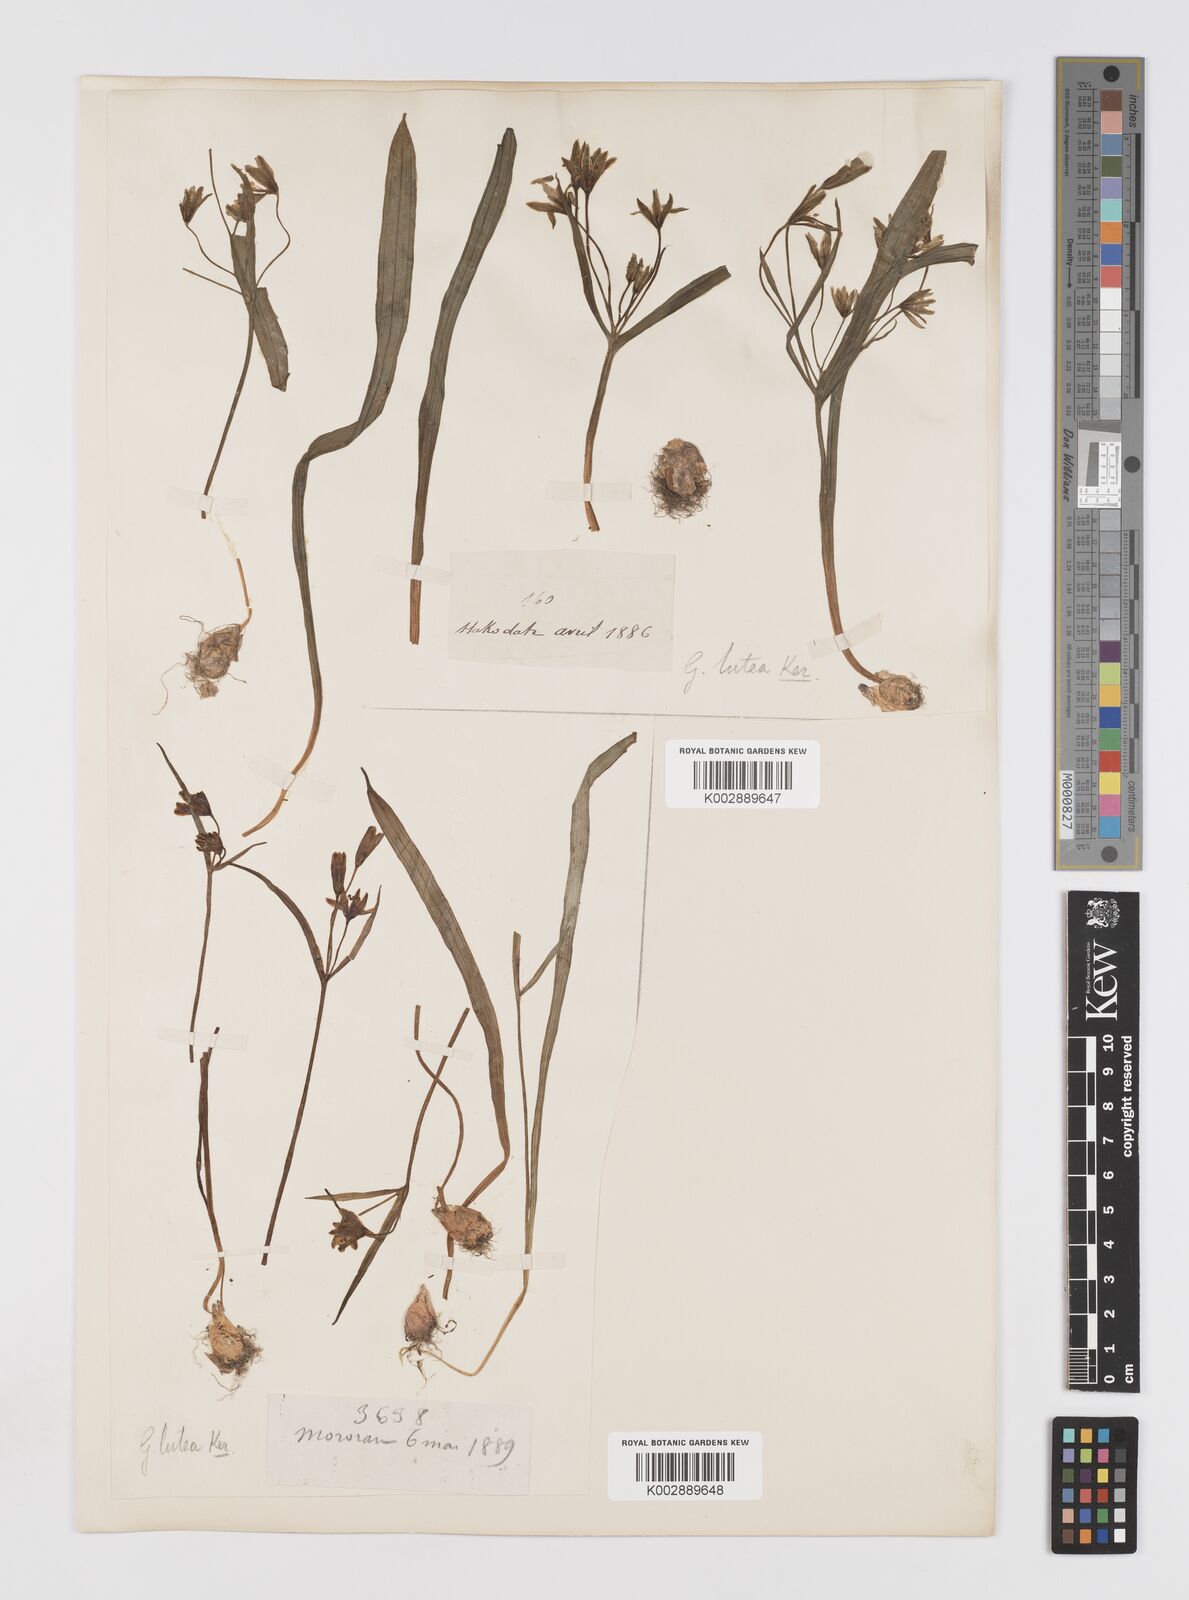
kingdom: Plantae
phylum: Tracheophyta
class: Liliopsida
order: Liliales
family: Liliaceae
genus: Gagea
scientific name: Gagea lutea
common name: Yellow star-of-bethlehem
